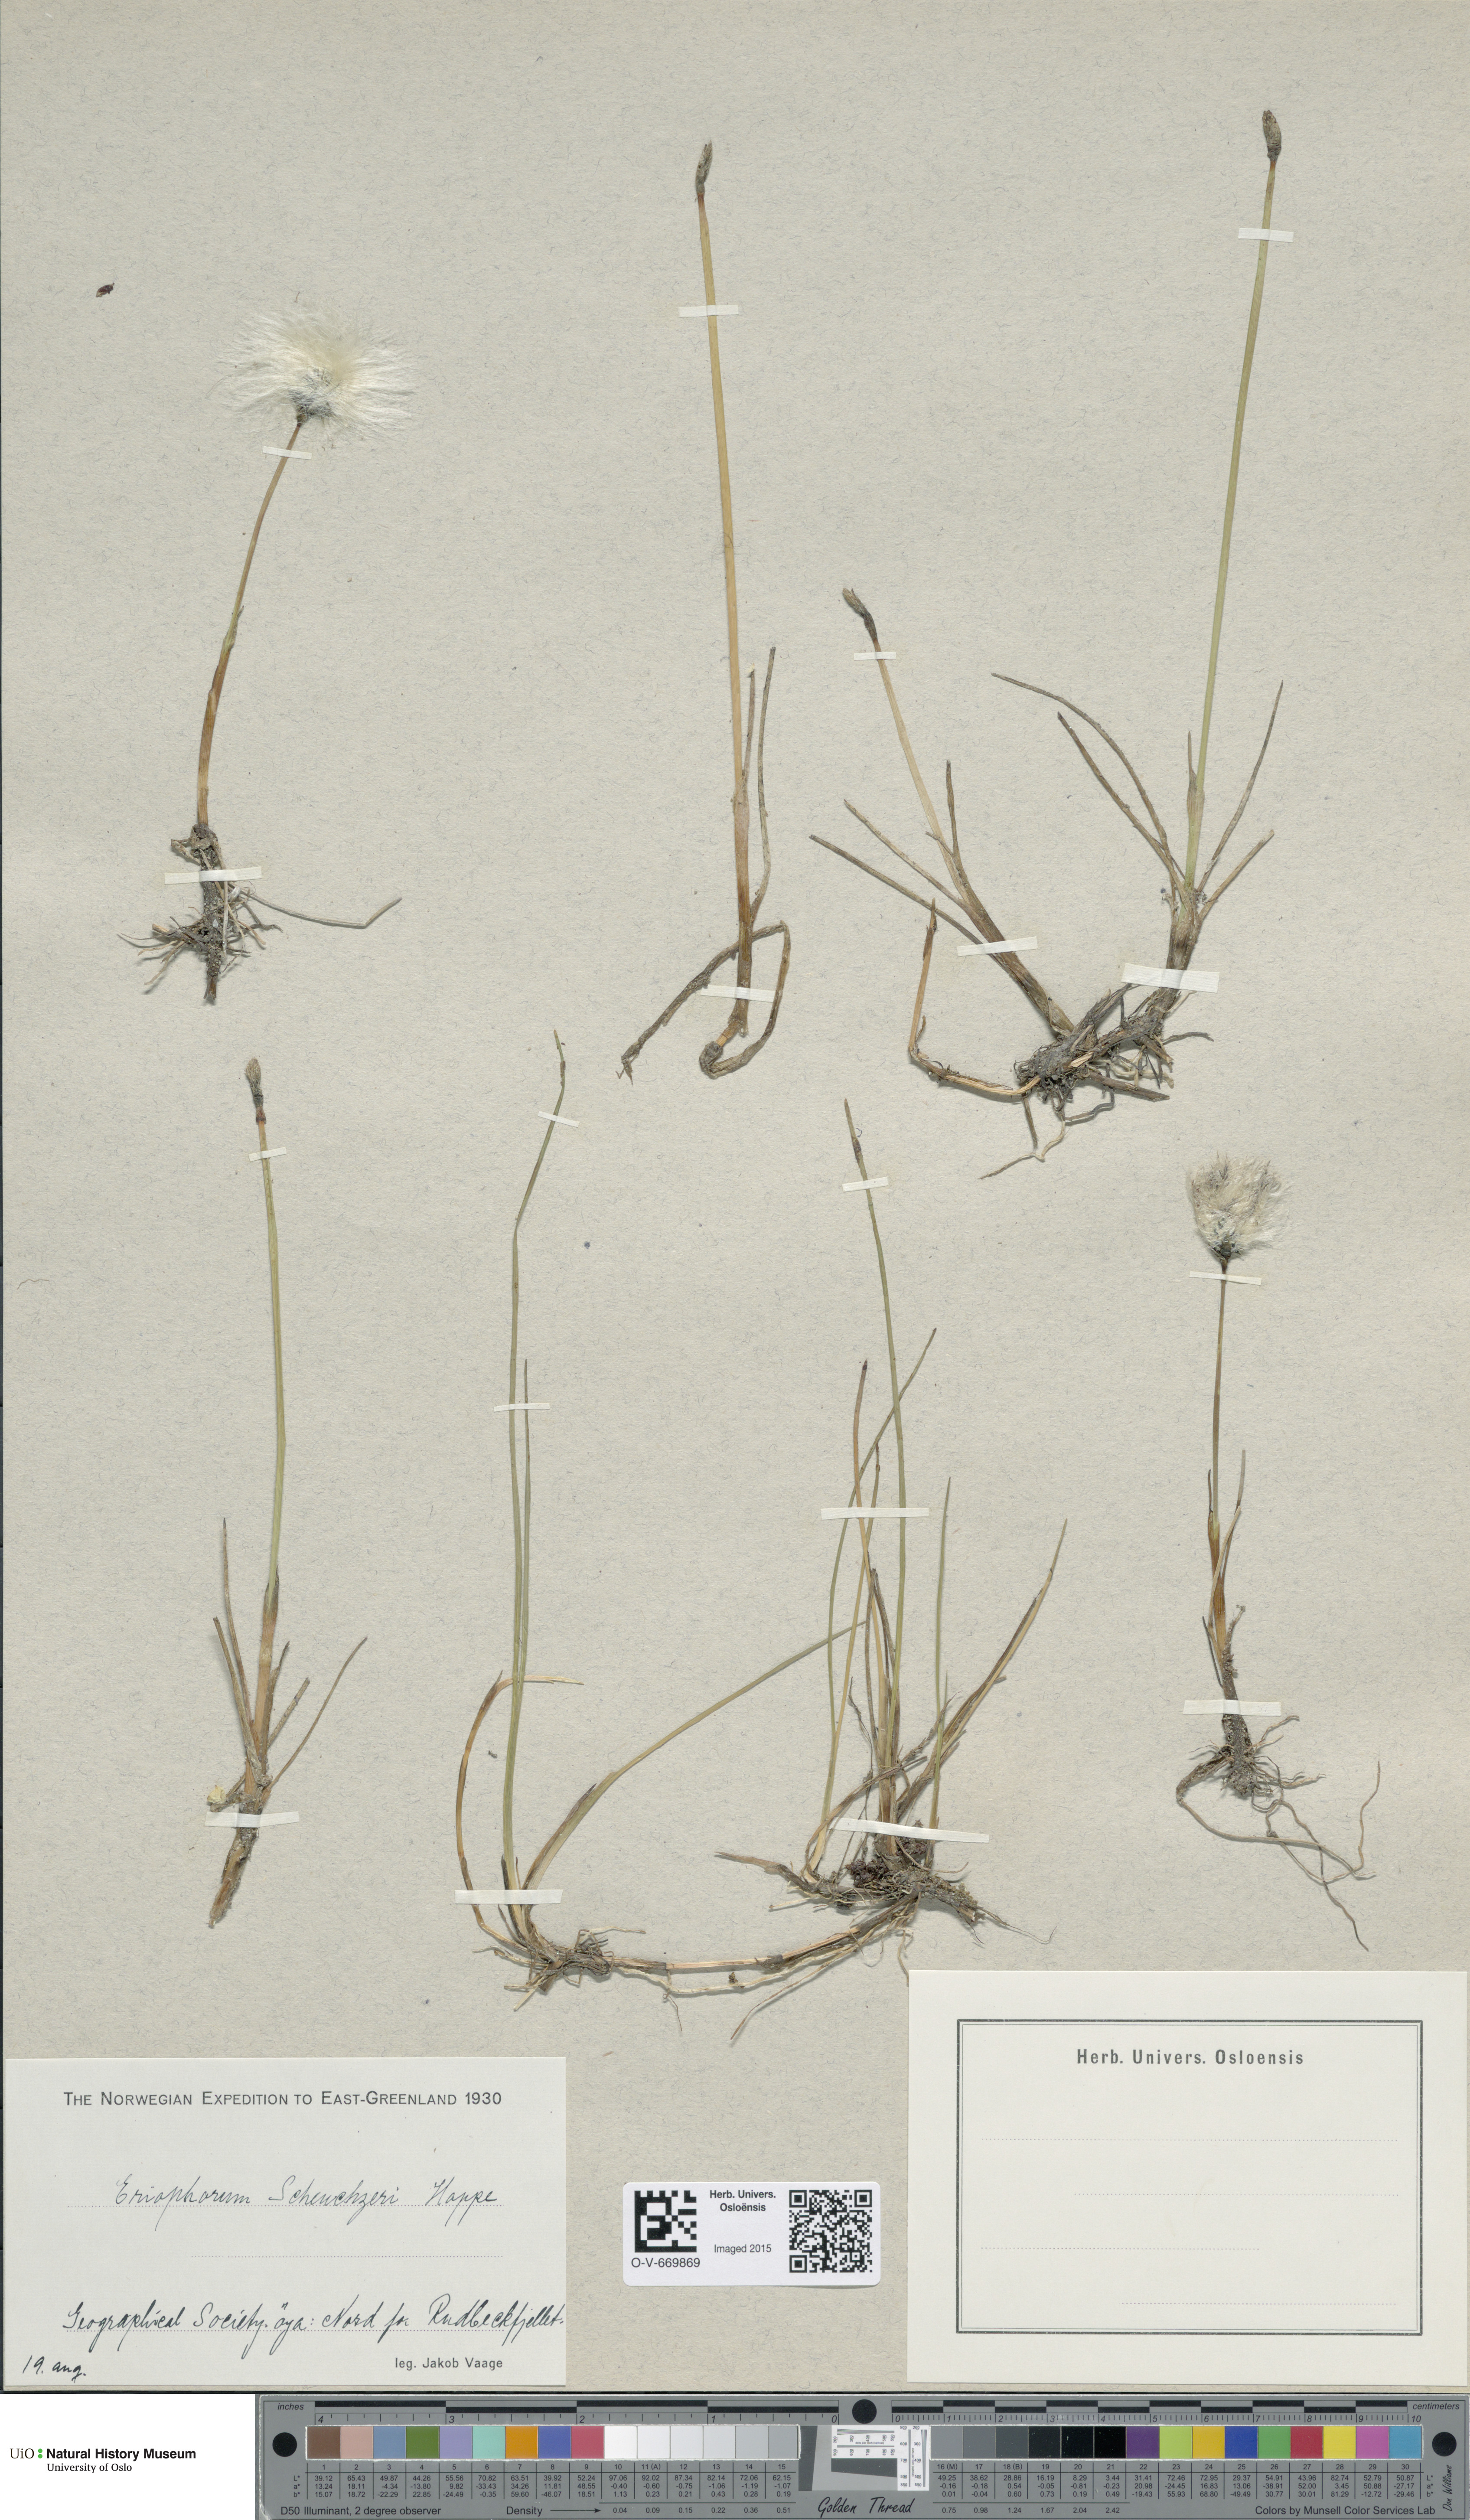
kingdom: Plantae
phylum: Tracheophyta
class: Liliopsida
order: Poales
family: Cyperaceae
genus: Eriophorum
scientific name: Eriophorum scheuchzeri
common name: Scheuchzer's cottongrass
